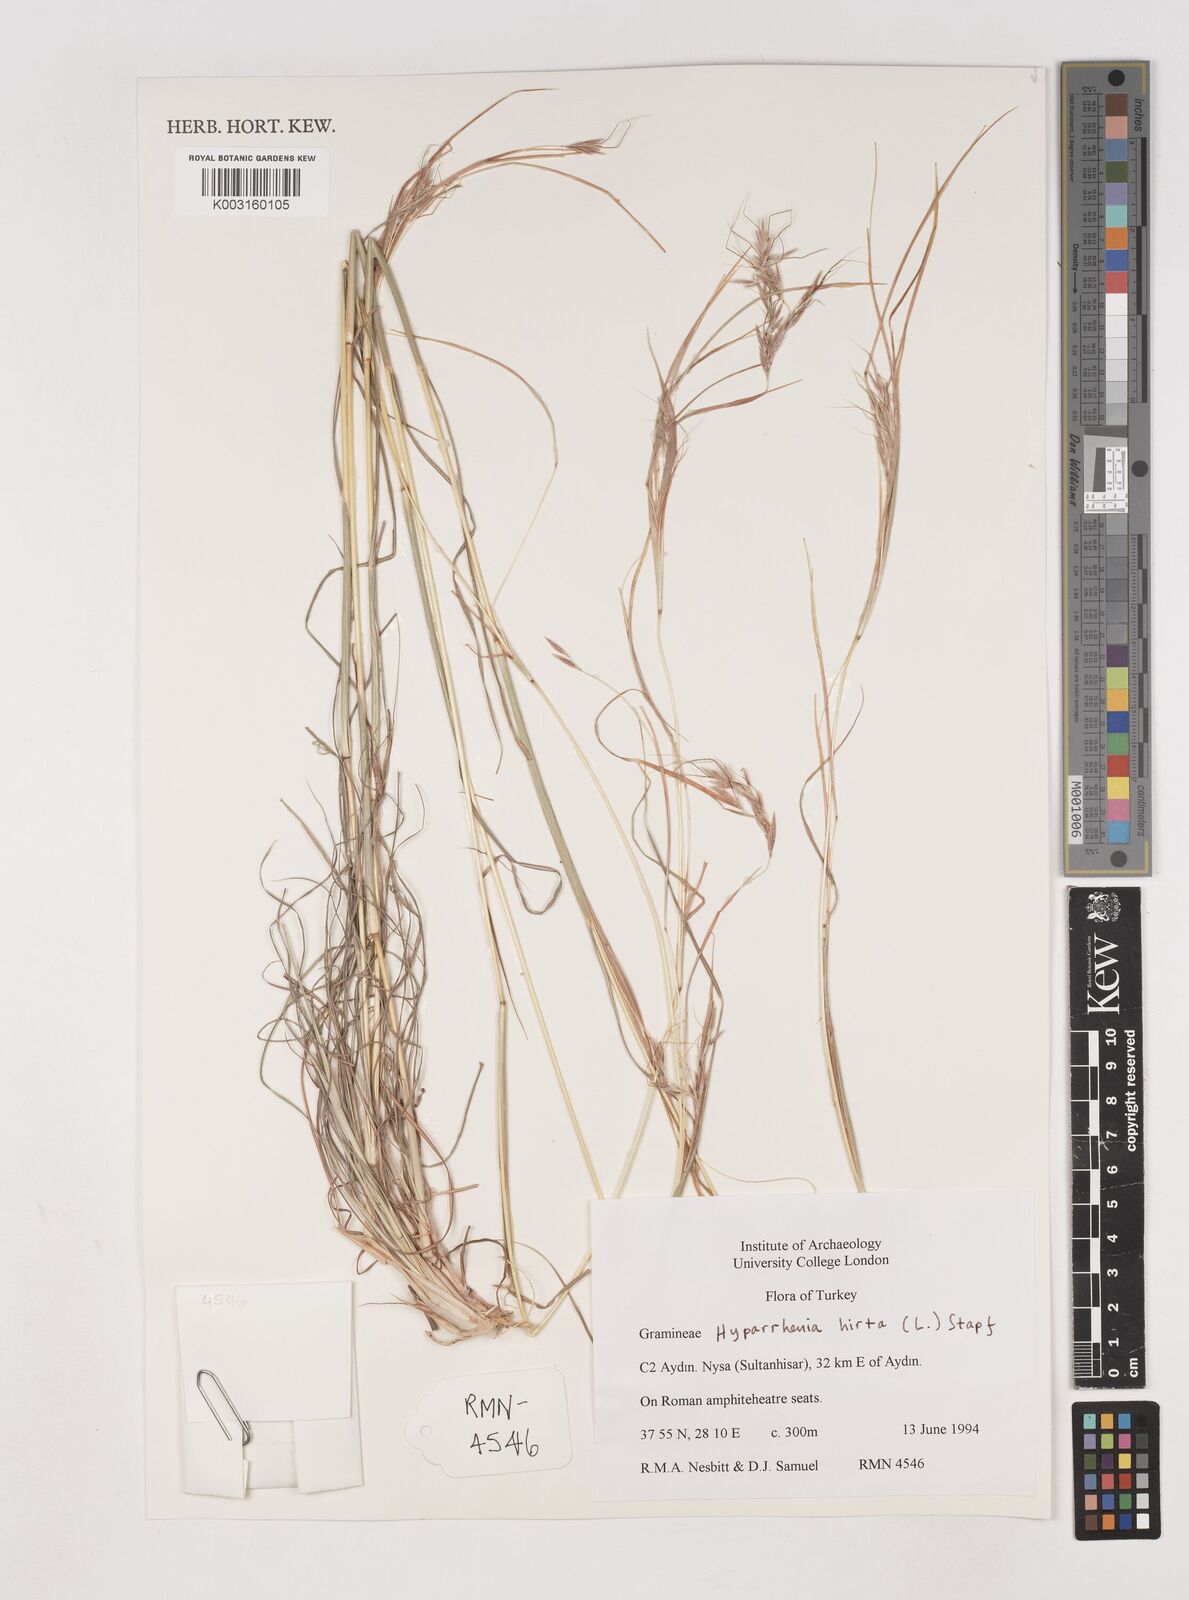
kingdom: Plantae
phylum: Tracheophyta
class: Liliopsida
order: Poales
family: Poaceae
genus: Hyparrhenia
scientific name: Hyparrhenia hirta
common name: Thatching grass
